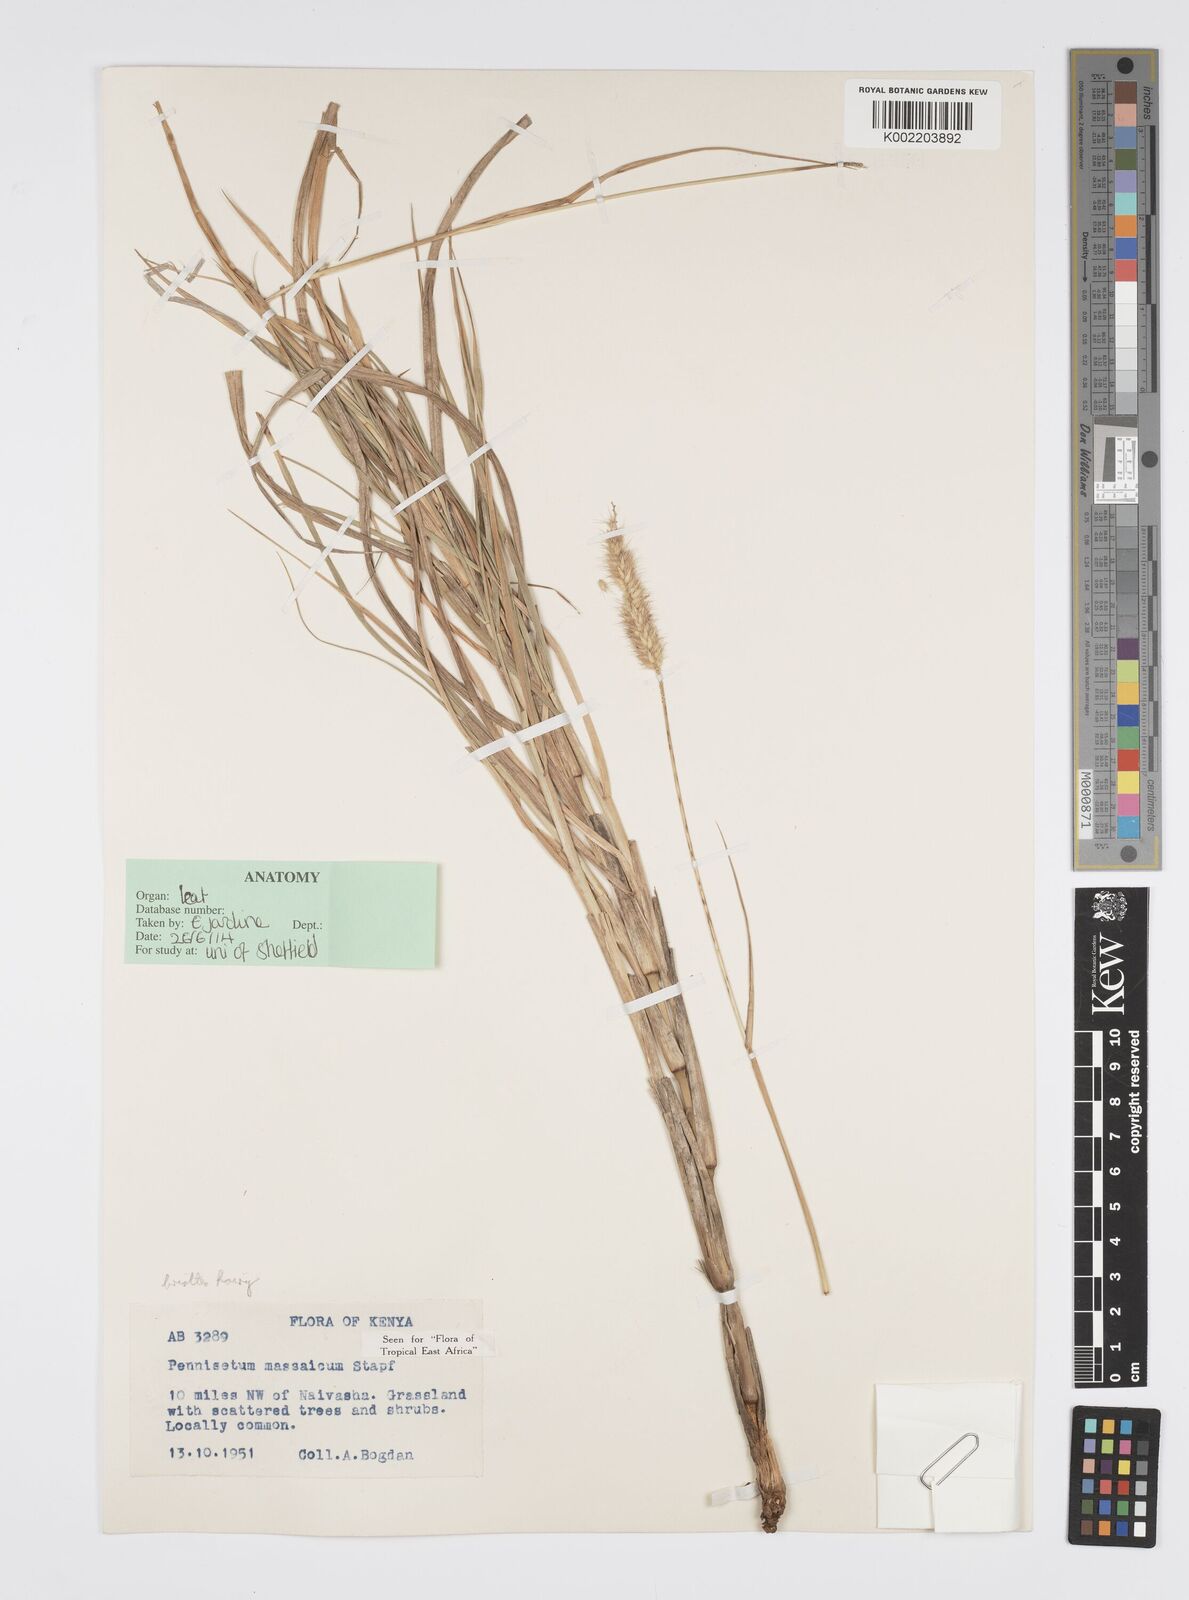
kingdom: Plantae
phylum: Tracheophyta
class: Liliopsida
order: Poales
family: Poaceae
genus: Cenchrus
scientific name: Cenchrus massaicus
